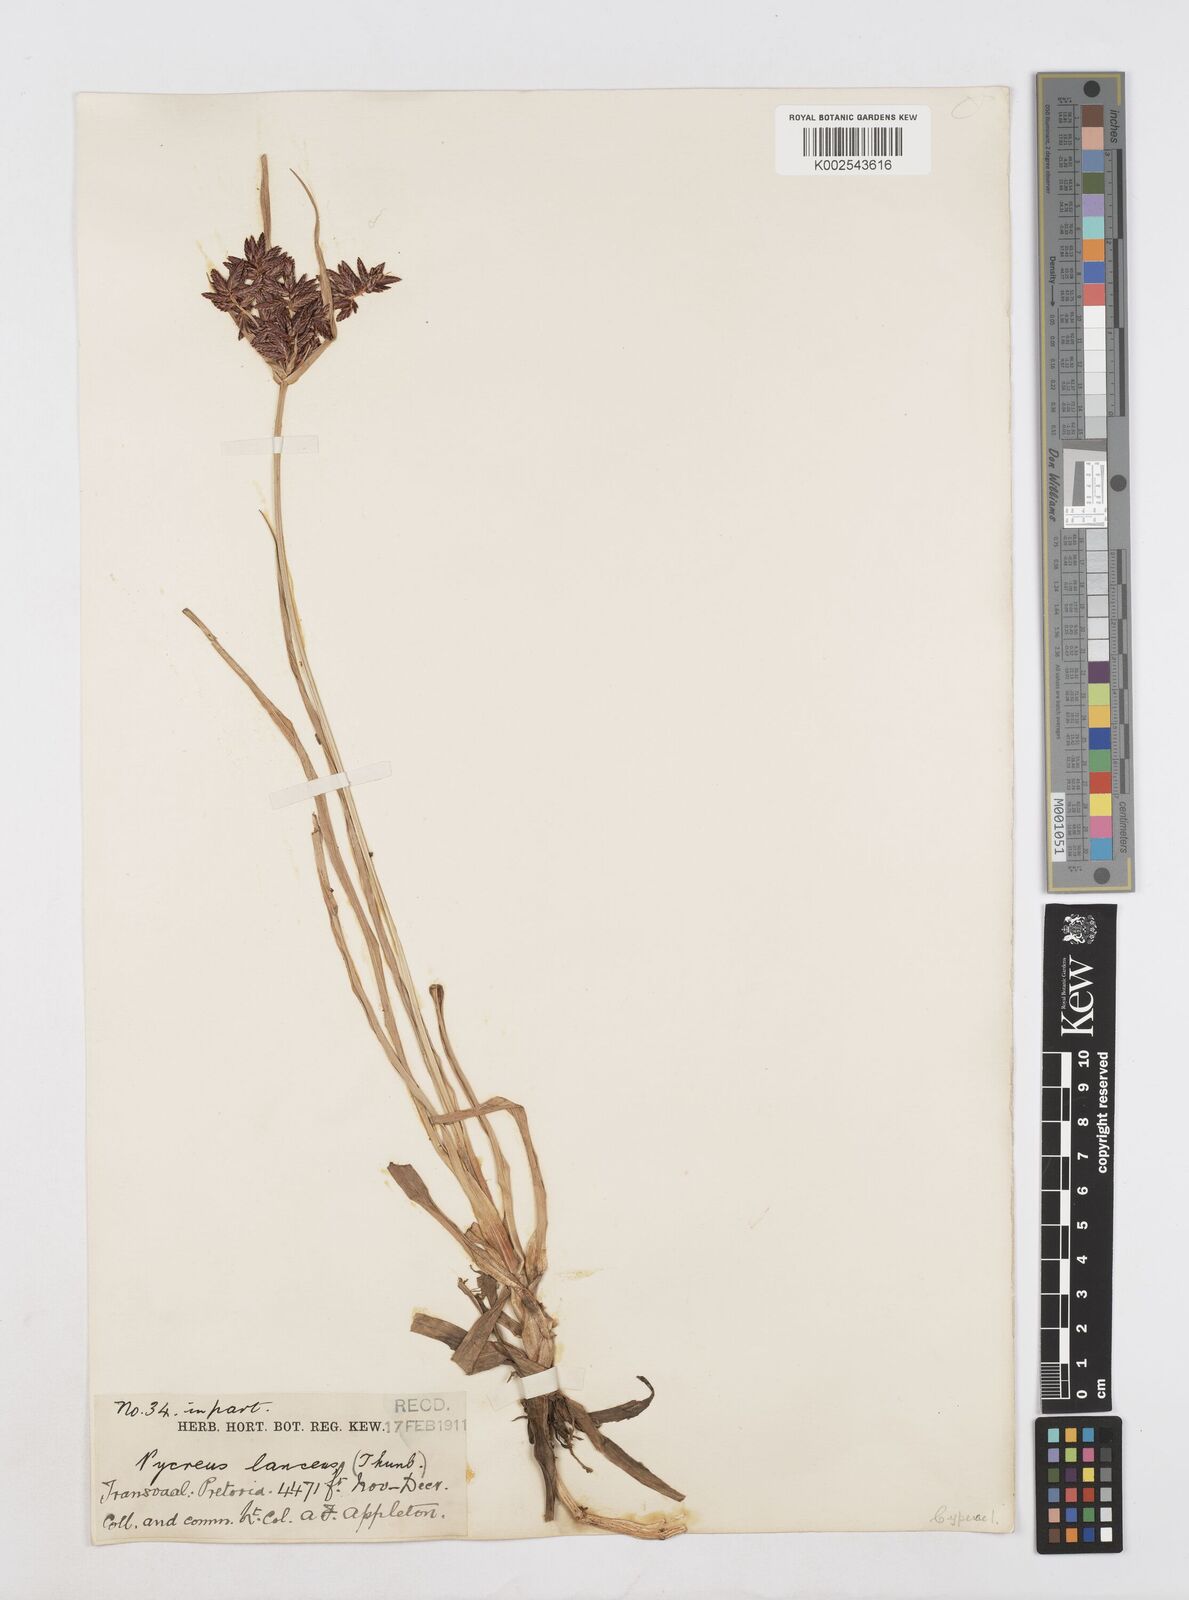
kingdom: Plantae
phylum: Tracheophyta
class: Liliopsida
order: Poales
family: Cyperaceae
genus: Cyperus
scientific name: Cyperus nitidus
